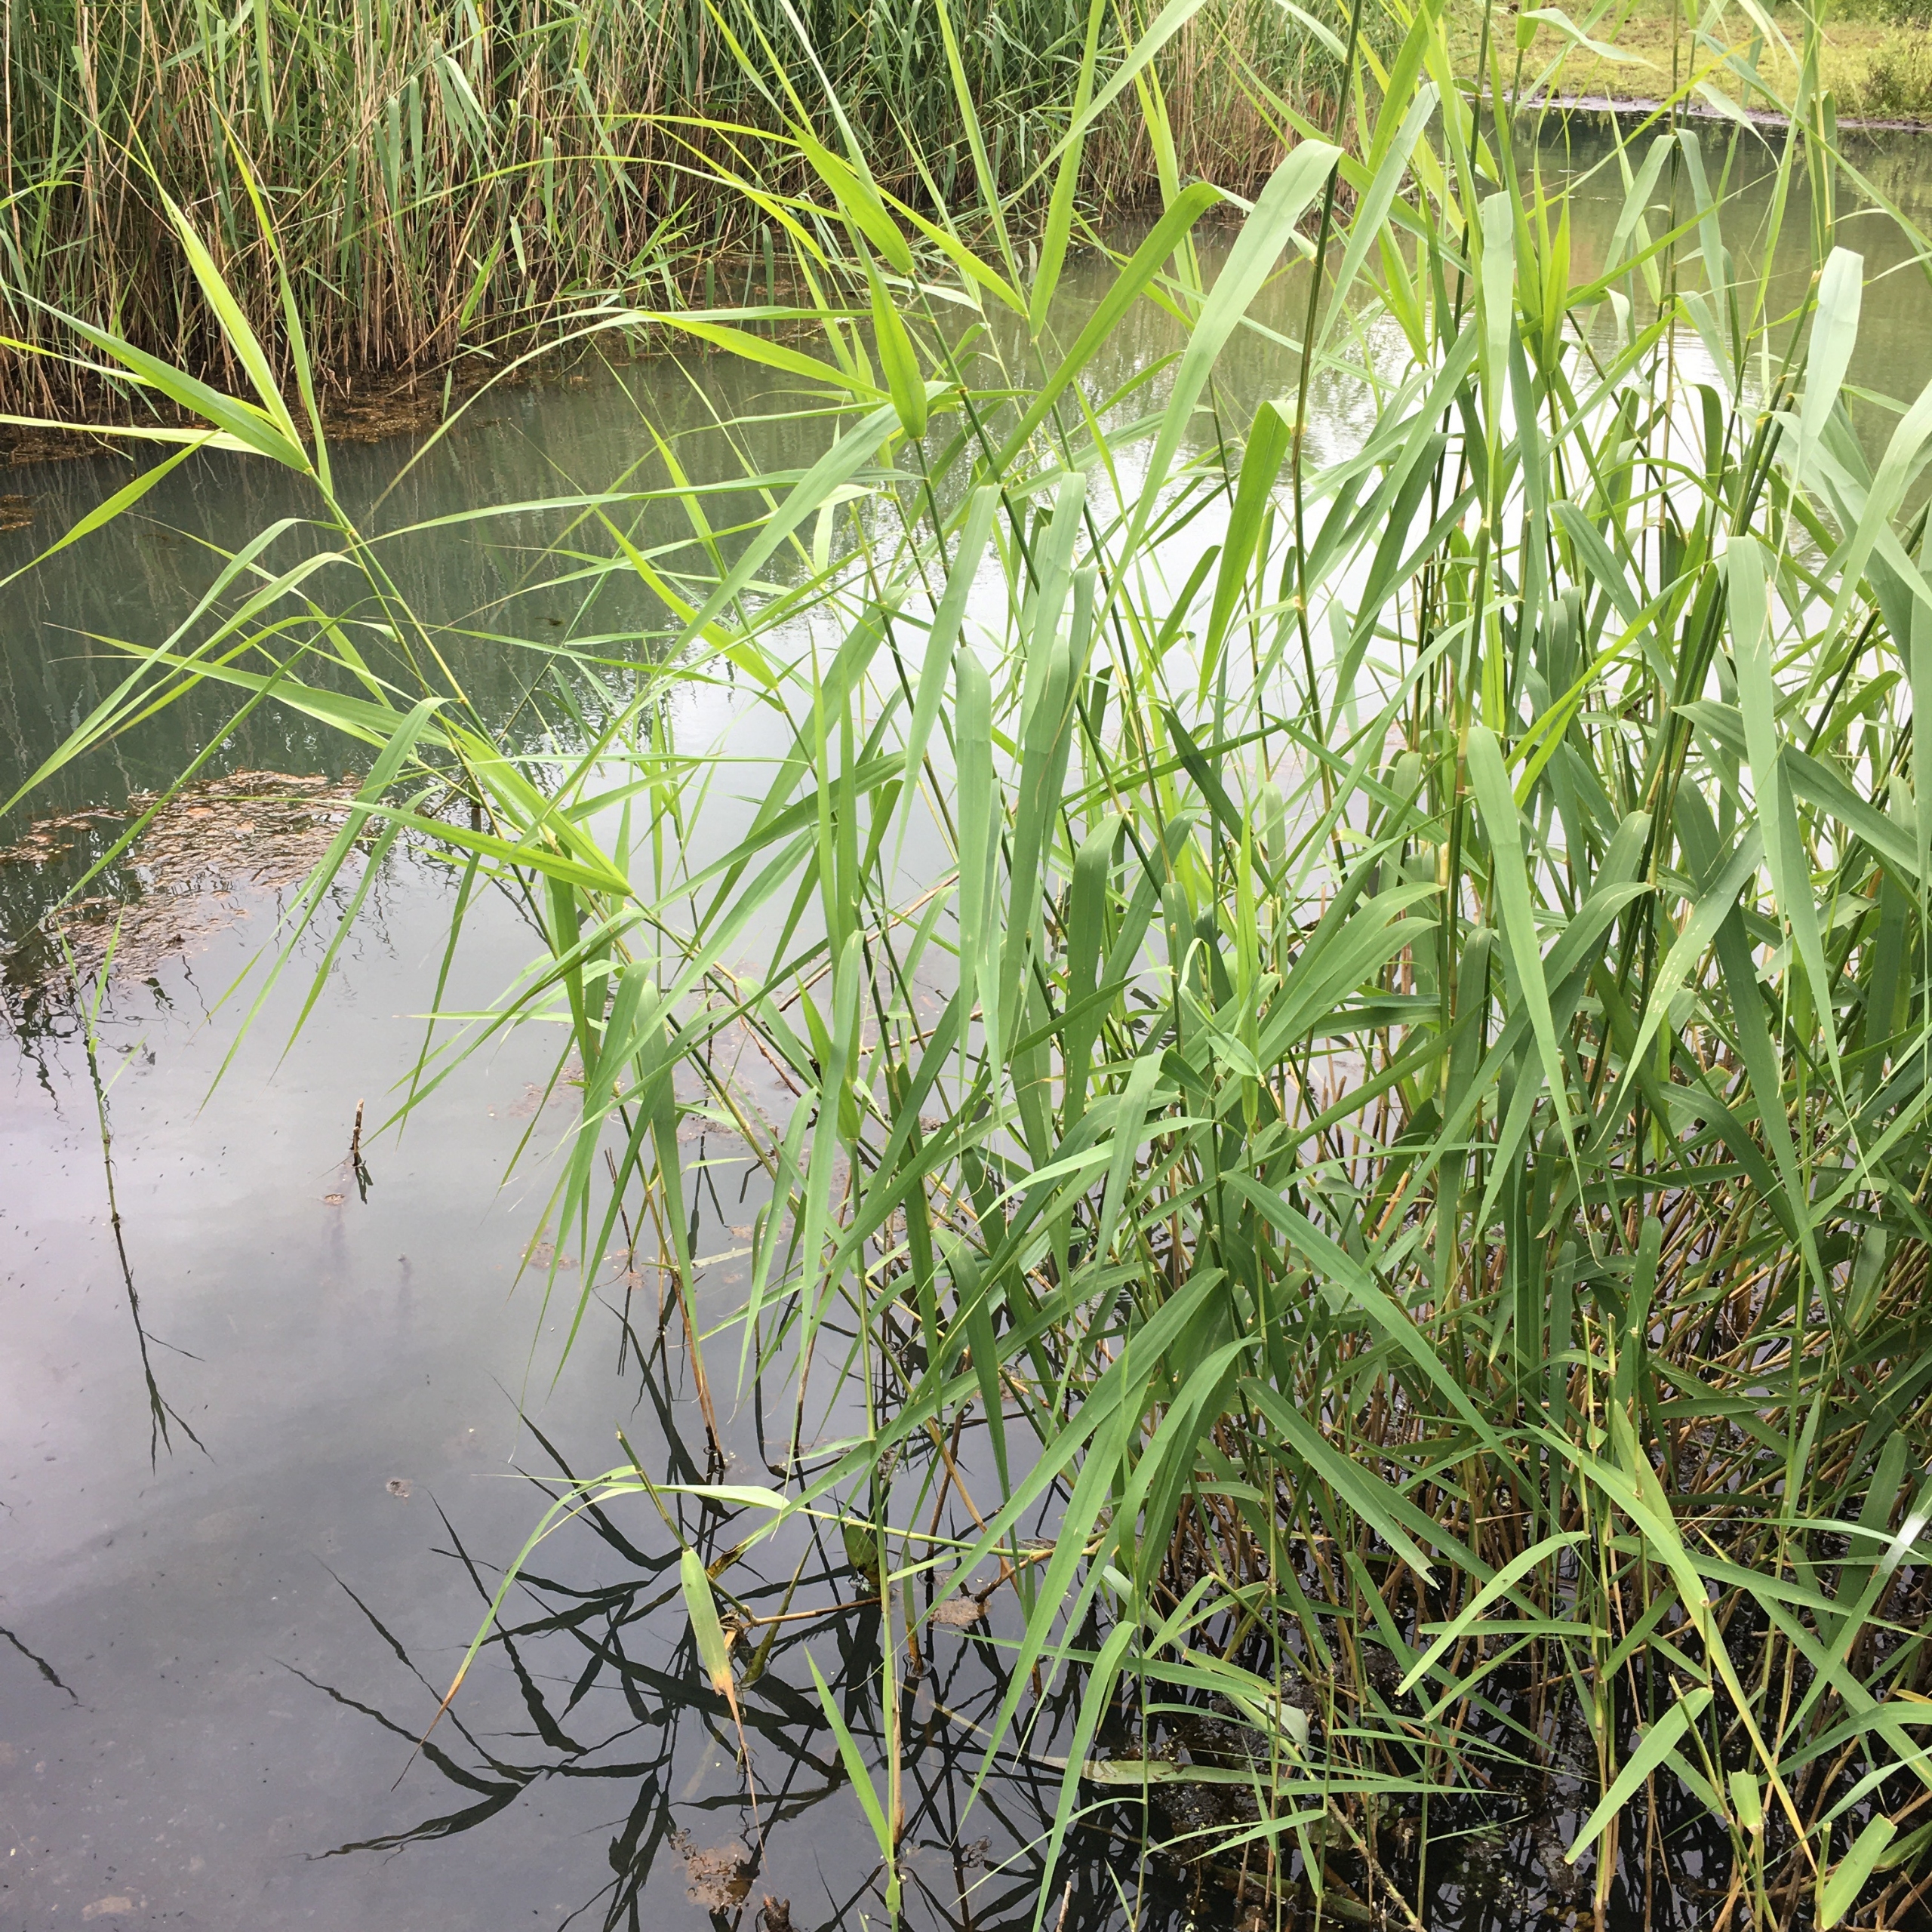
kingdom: Plantae
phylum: Tracheophyta
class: Liliopsida
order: Poales
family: Poaceae
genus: Phragmites
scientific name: Phragmites australis
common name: Tagrør
